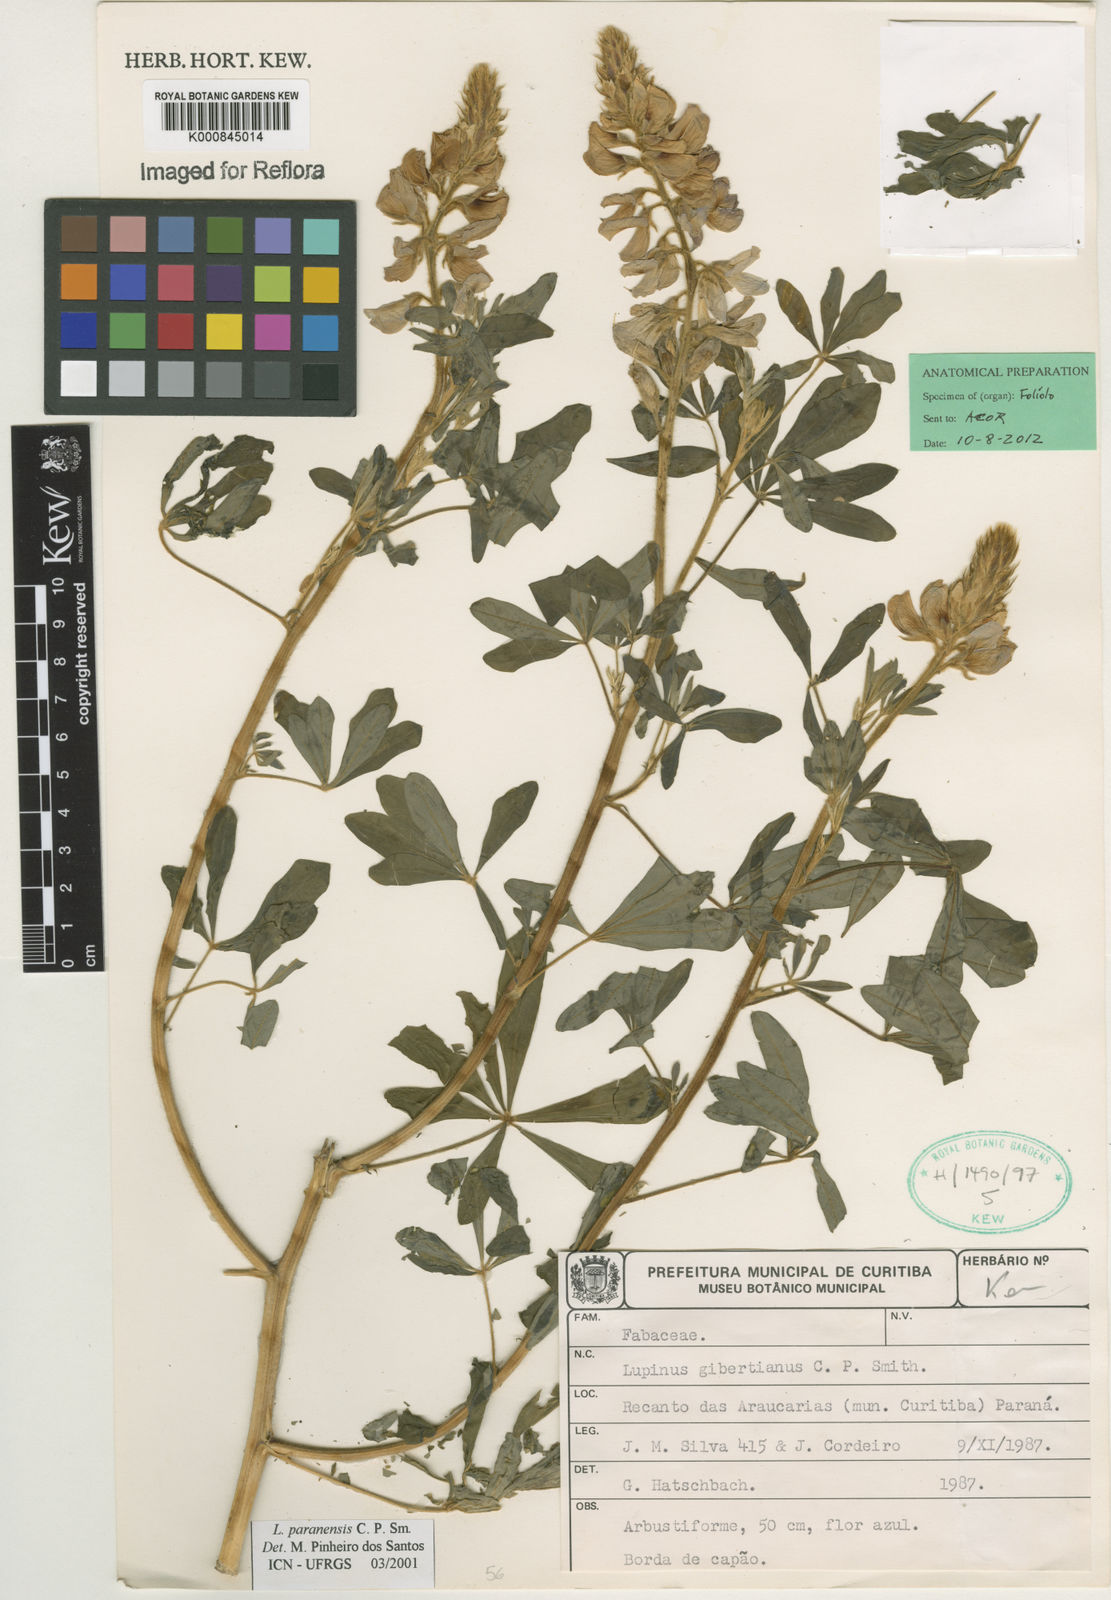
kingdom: Plantae
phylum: Tracheophyta
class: Magnoliopsida
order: Fabales
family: Fabaceae
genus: Lupinus
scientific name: Lupinus paranensis
